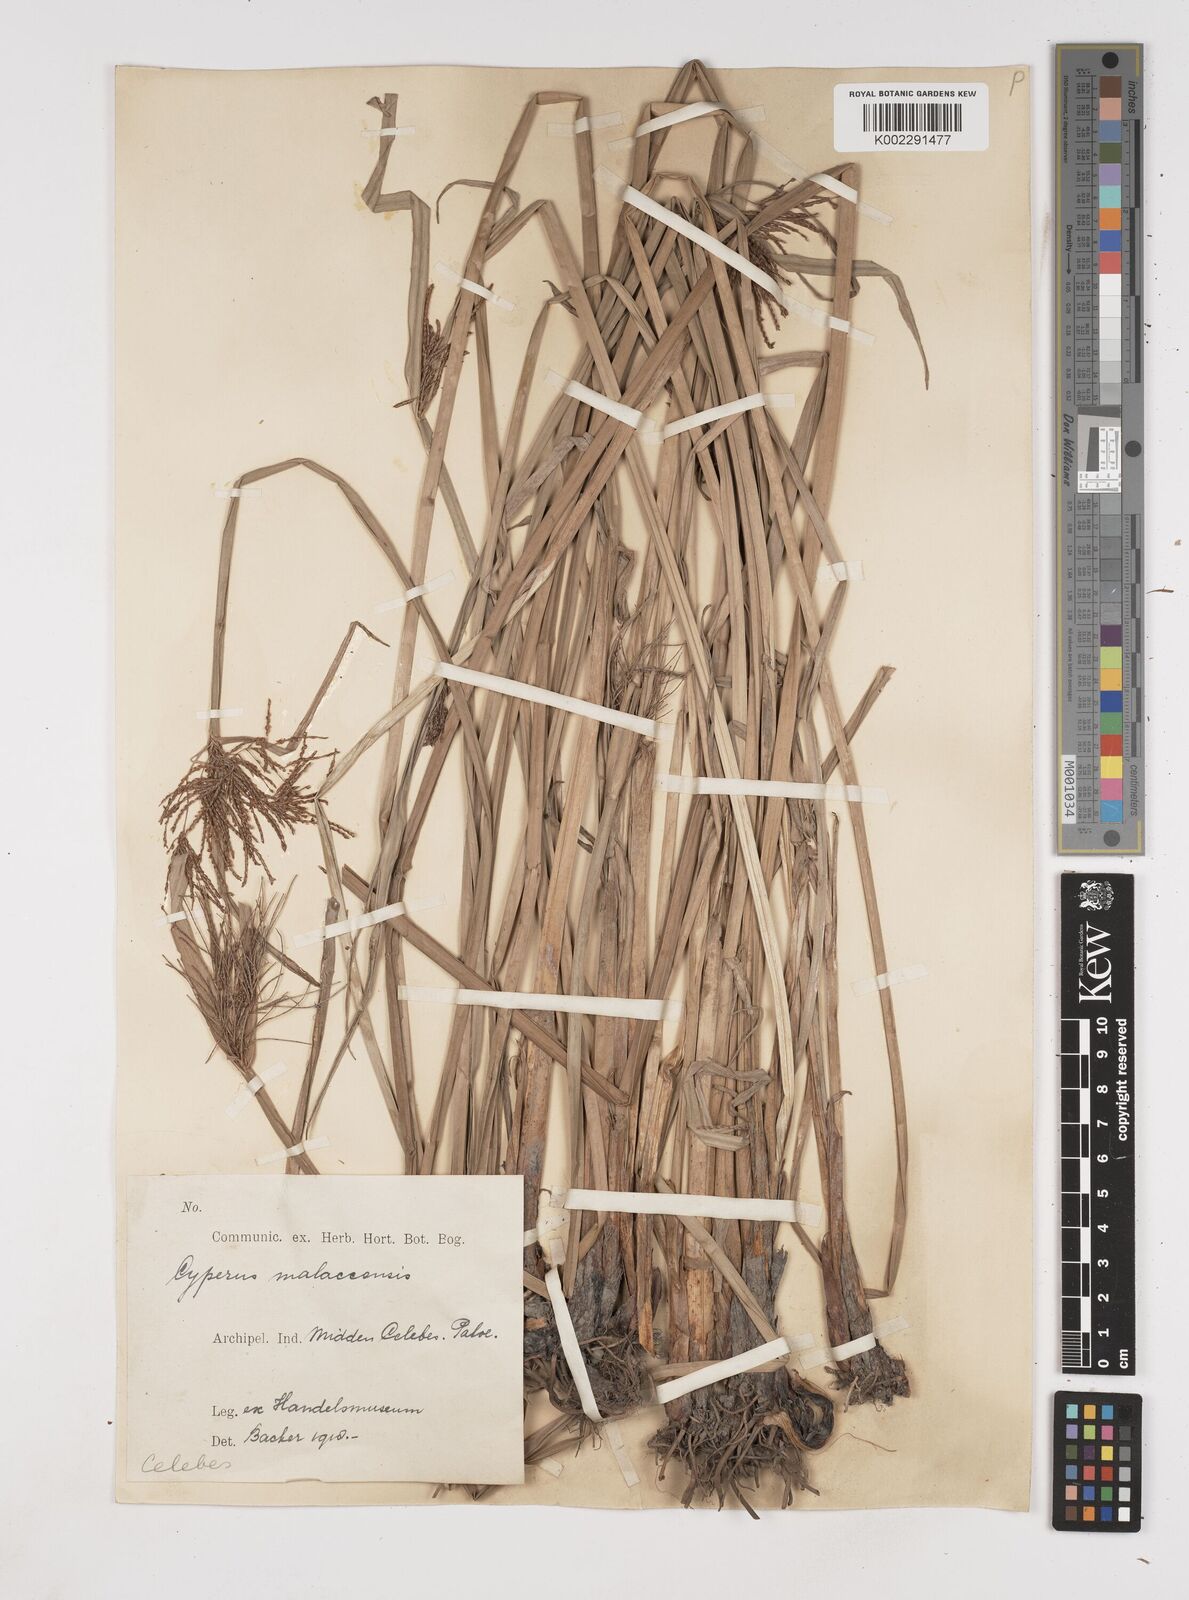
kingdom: Plantae
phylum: Tracheophyta
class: Liliopsida
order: Poales
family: Cyperaceae
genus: Cyperus
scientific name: Cyperus malaccensis
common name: Shichito matgrass
